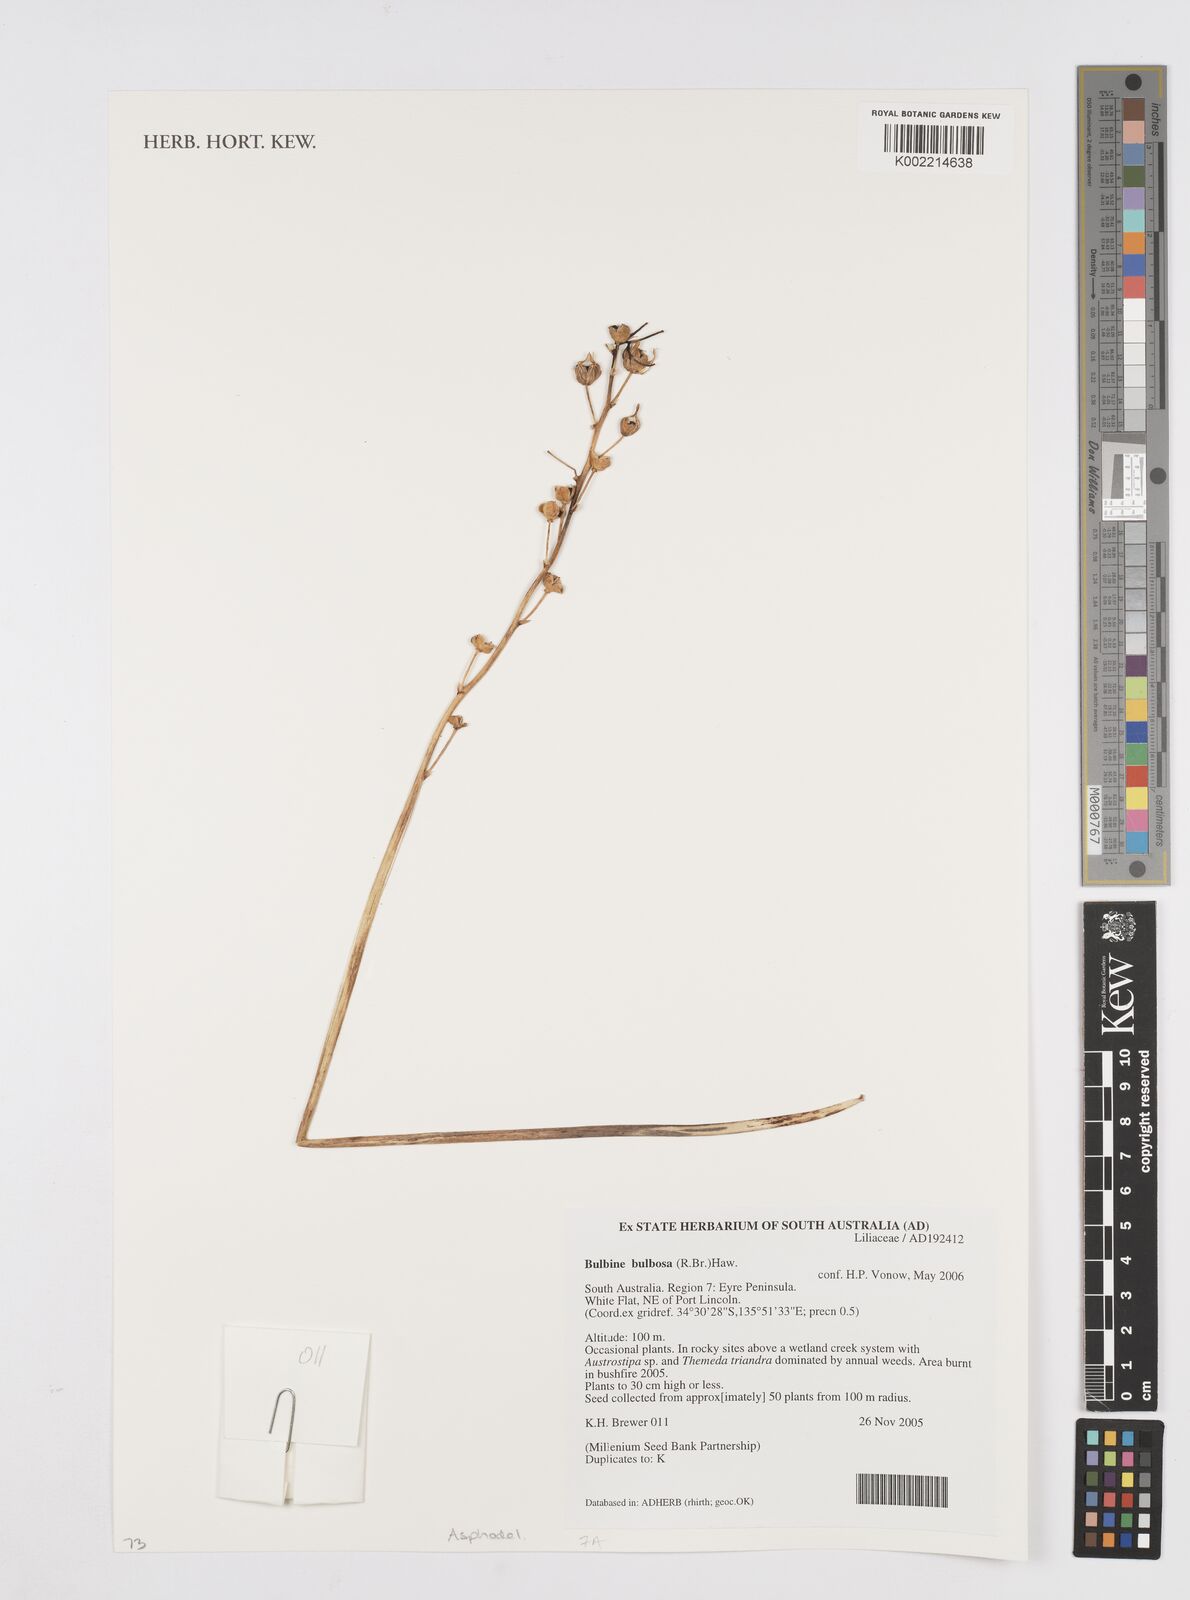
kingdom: Plantae
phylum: Tracheophyta
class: Liliopsida
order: Asparagales
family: Asphodelaceae
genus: Bulbine
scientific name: Bulbine bulbosa
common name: Golden-lily
